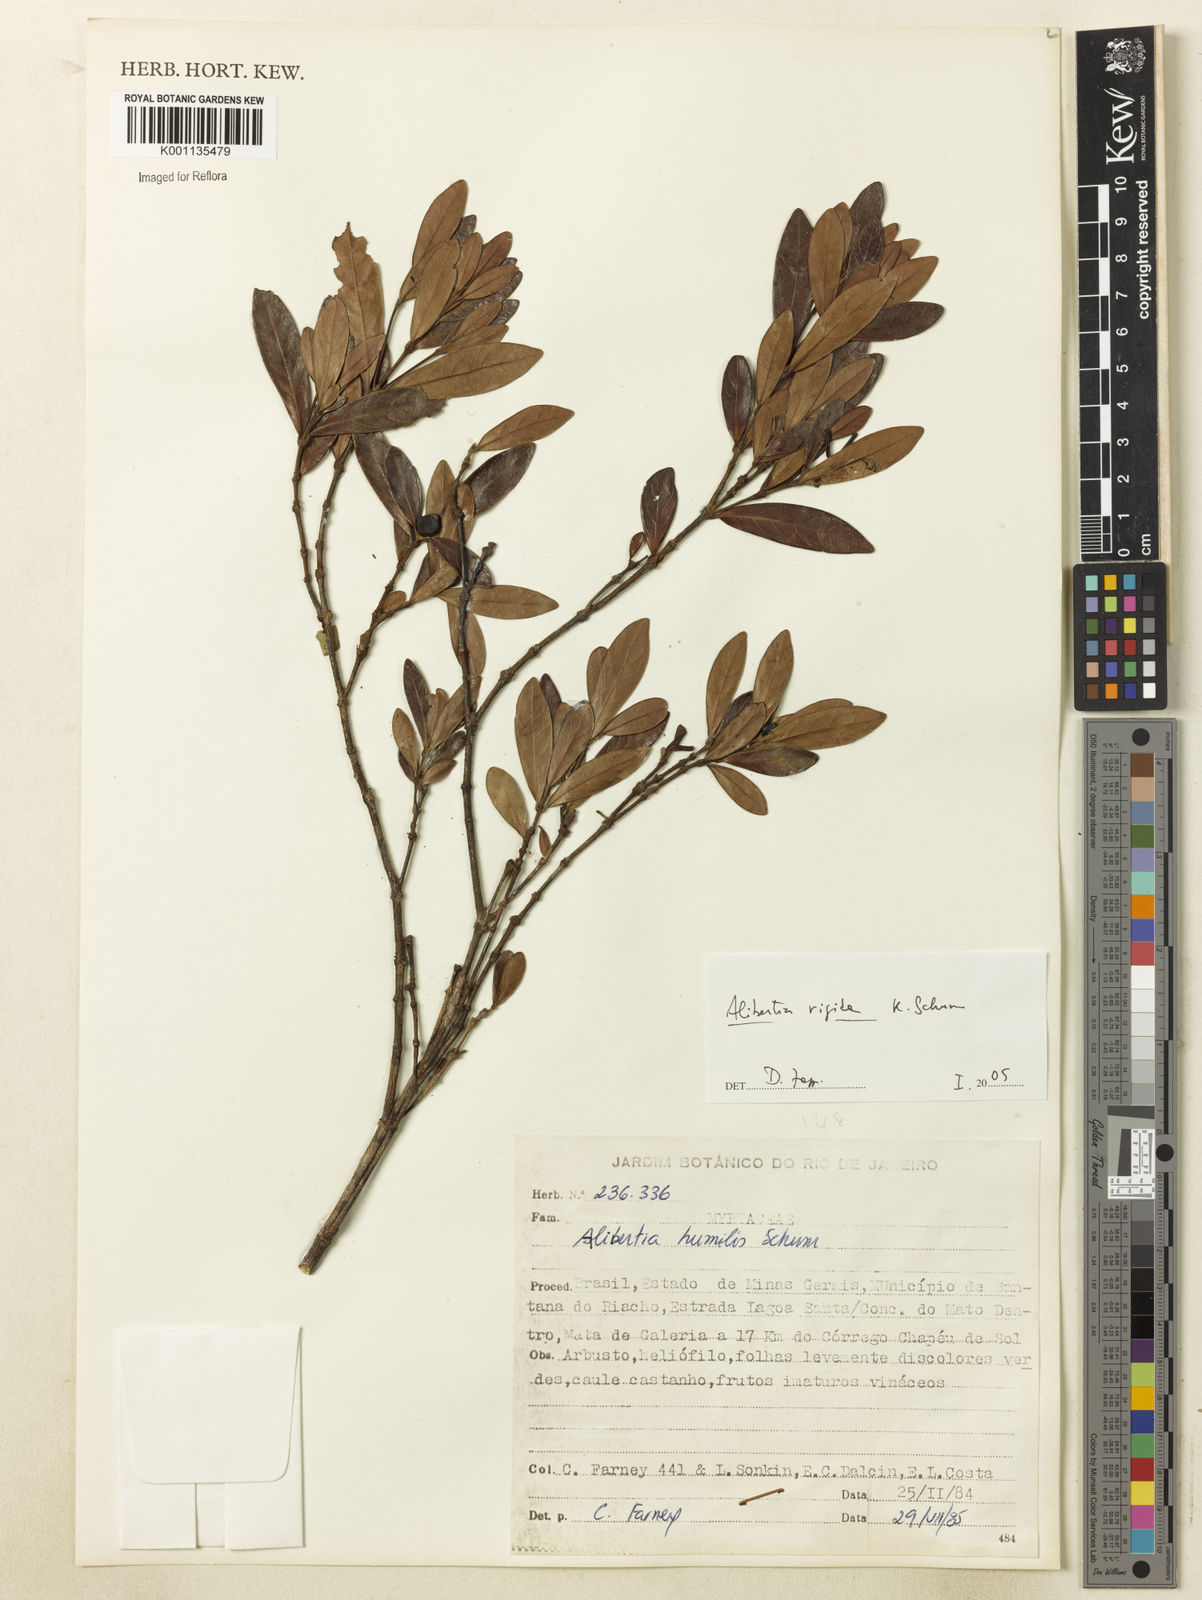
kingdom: Plantae
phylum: Tracheophyta
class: Magnoliopsida
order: Gentianales
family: Rubiaceae
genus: Cordiera
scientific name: Cordiera rigida
